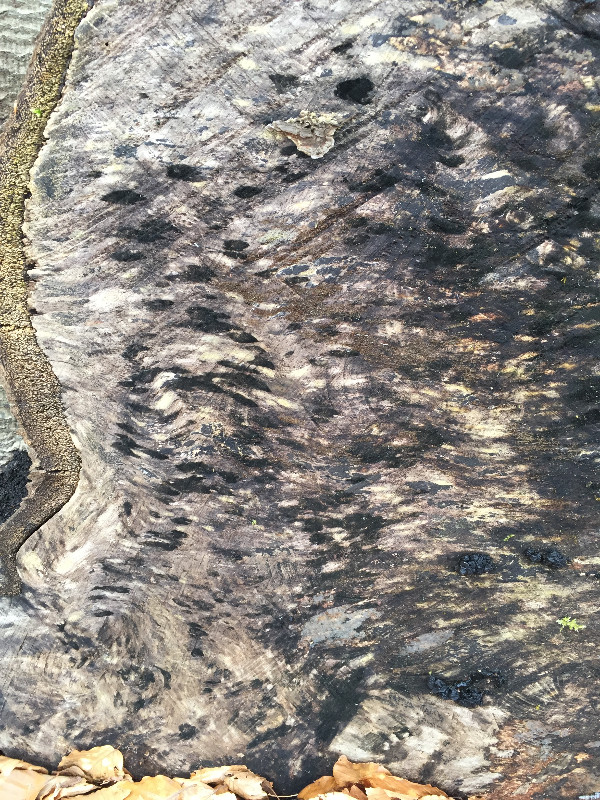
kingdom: Fungi
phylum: Ascomycota
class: Leotiomycetes
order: Helotiales
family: Helotiaceae
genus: Bispora
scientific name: Bispora pallescens
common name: måtte-snitskive
